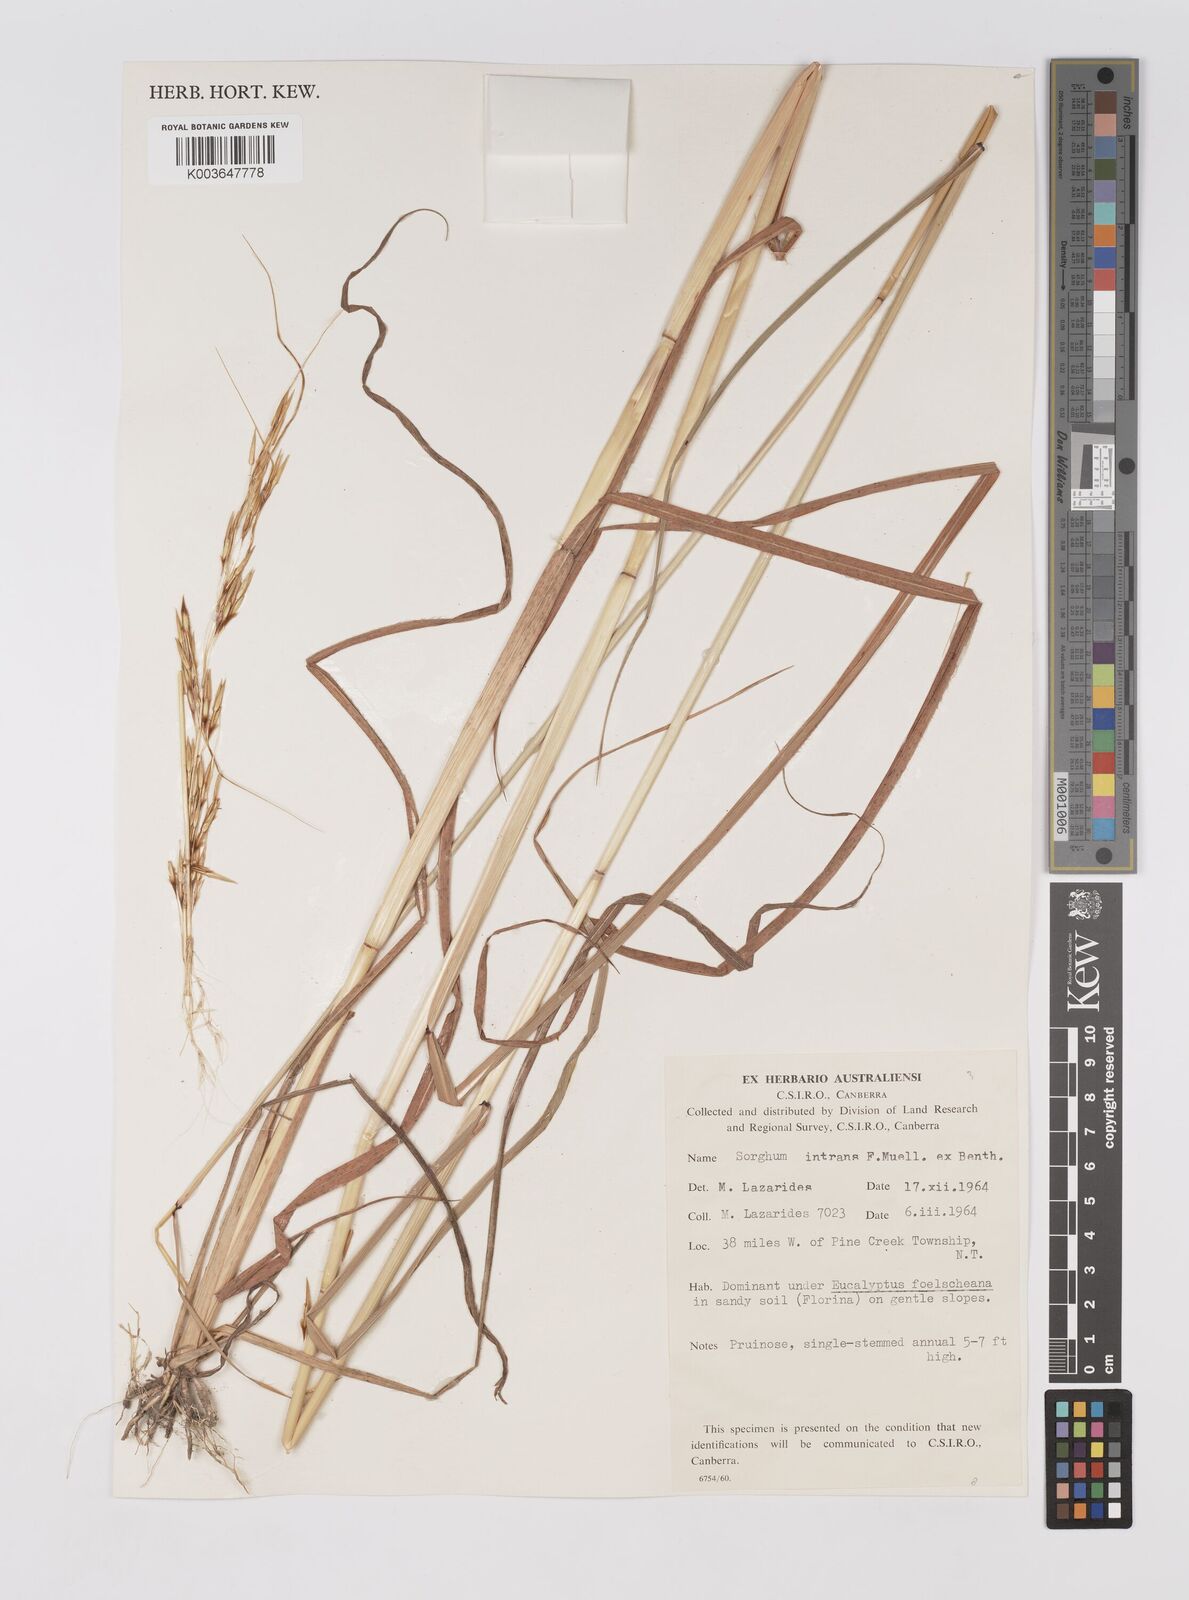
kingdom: Plantae
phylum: Tracheophyta
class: Liliopsida
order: Poales
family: Poaceae
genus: Sarga
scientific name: Sarga intrans
